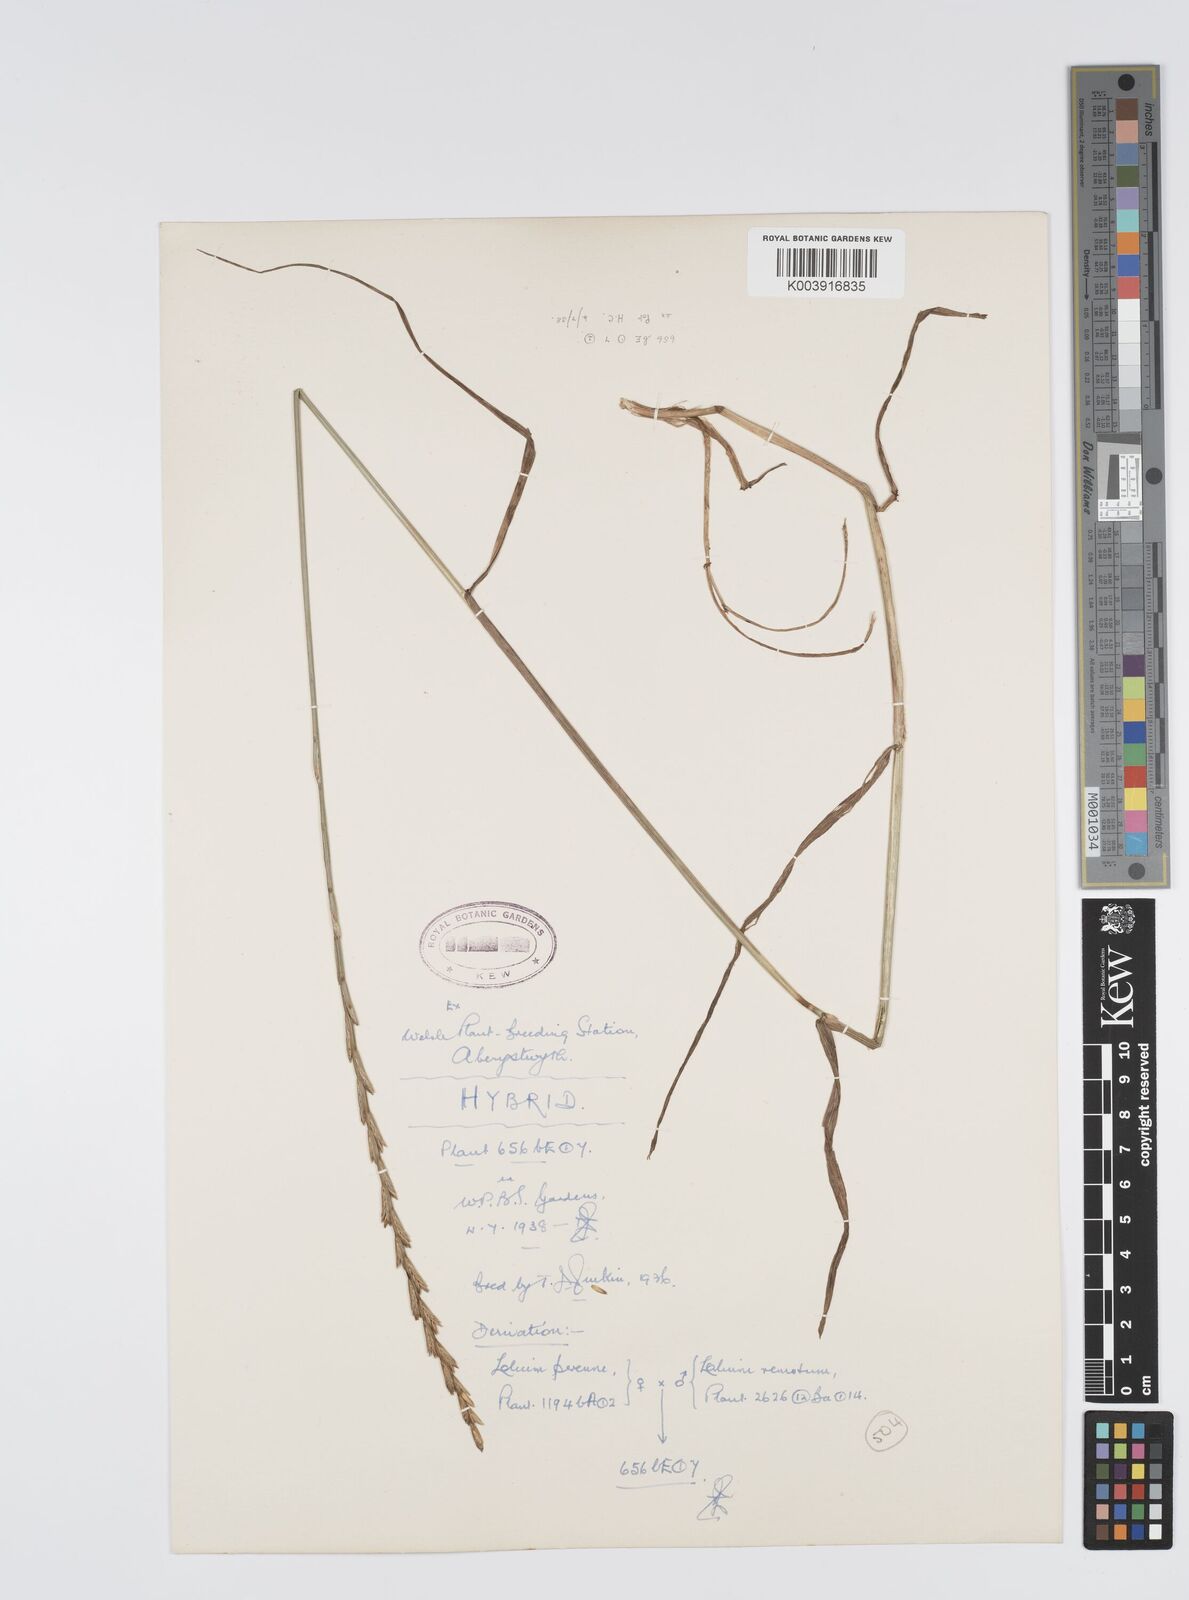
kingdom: Plantae
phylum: Tracheophyta
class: Liliopsida
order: Poales
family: Poaceae
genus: Lolium
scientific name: Lolium perenne
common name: Perennial ryegrass
